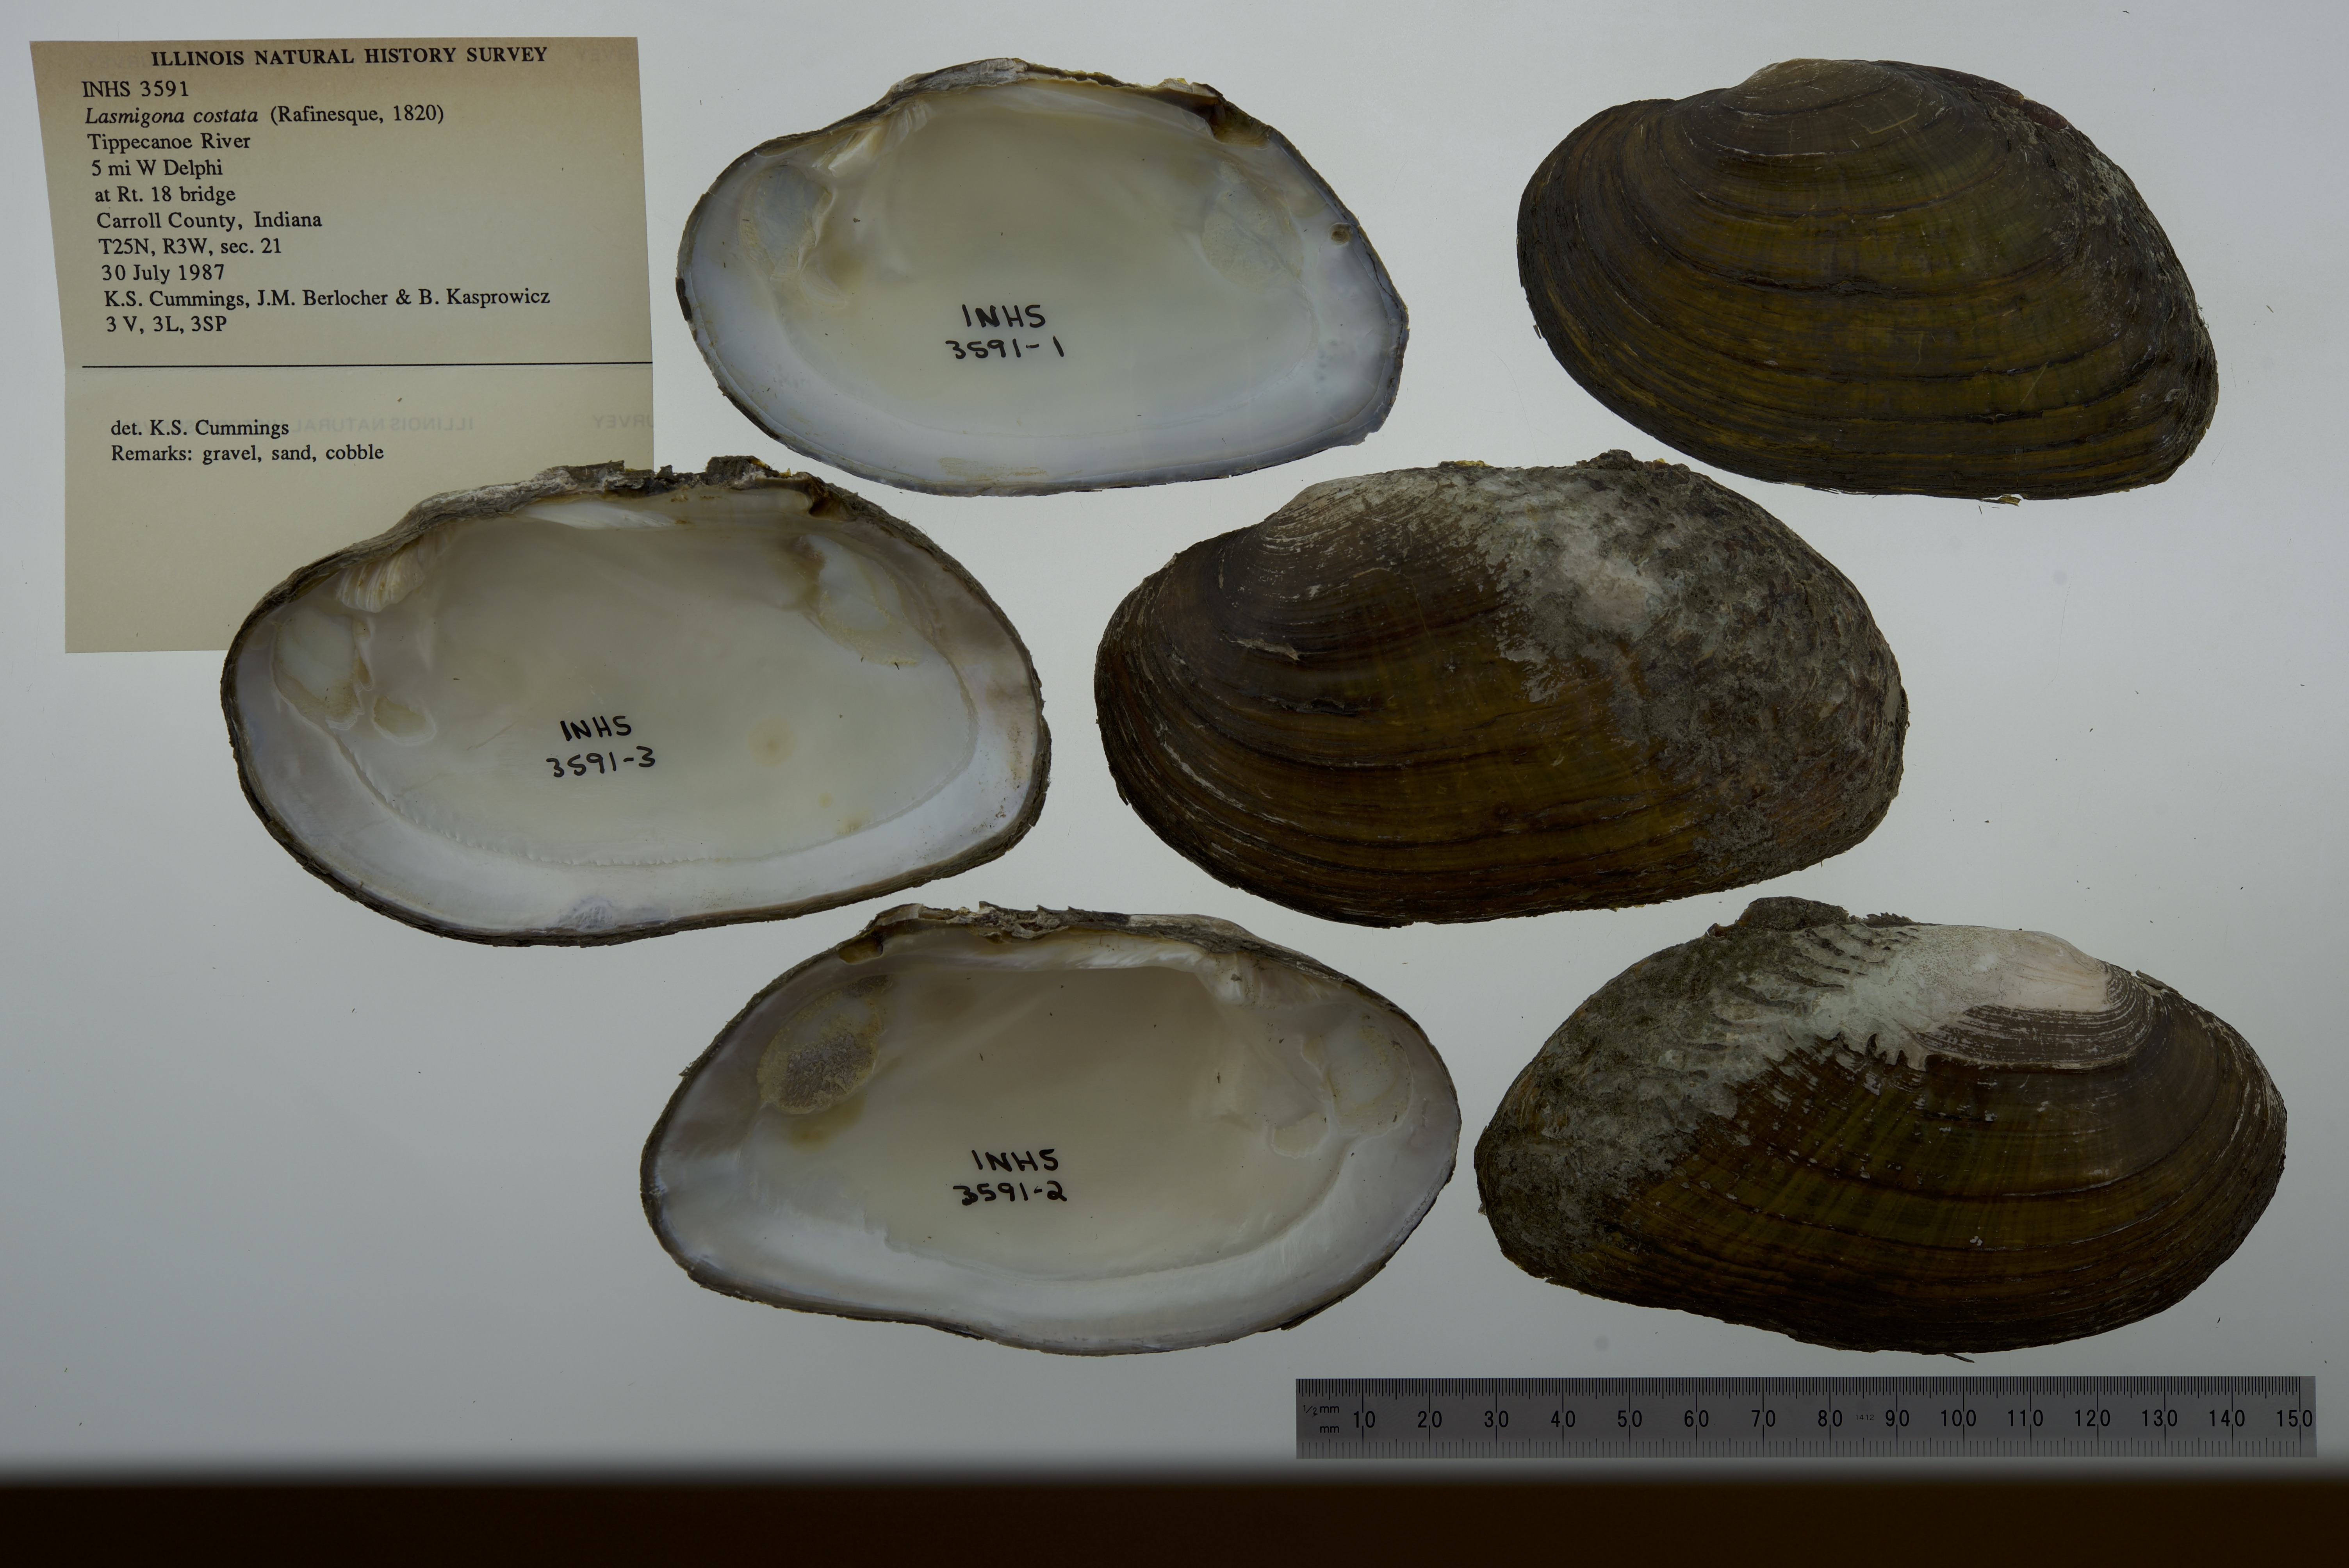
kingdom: Animalia
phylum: Mollusca
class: Bivalvia
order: Unionida
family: Unionidae
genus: Lasmigona
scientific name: Lasmigona costata
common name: Flutedshell
